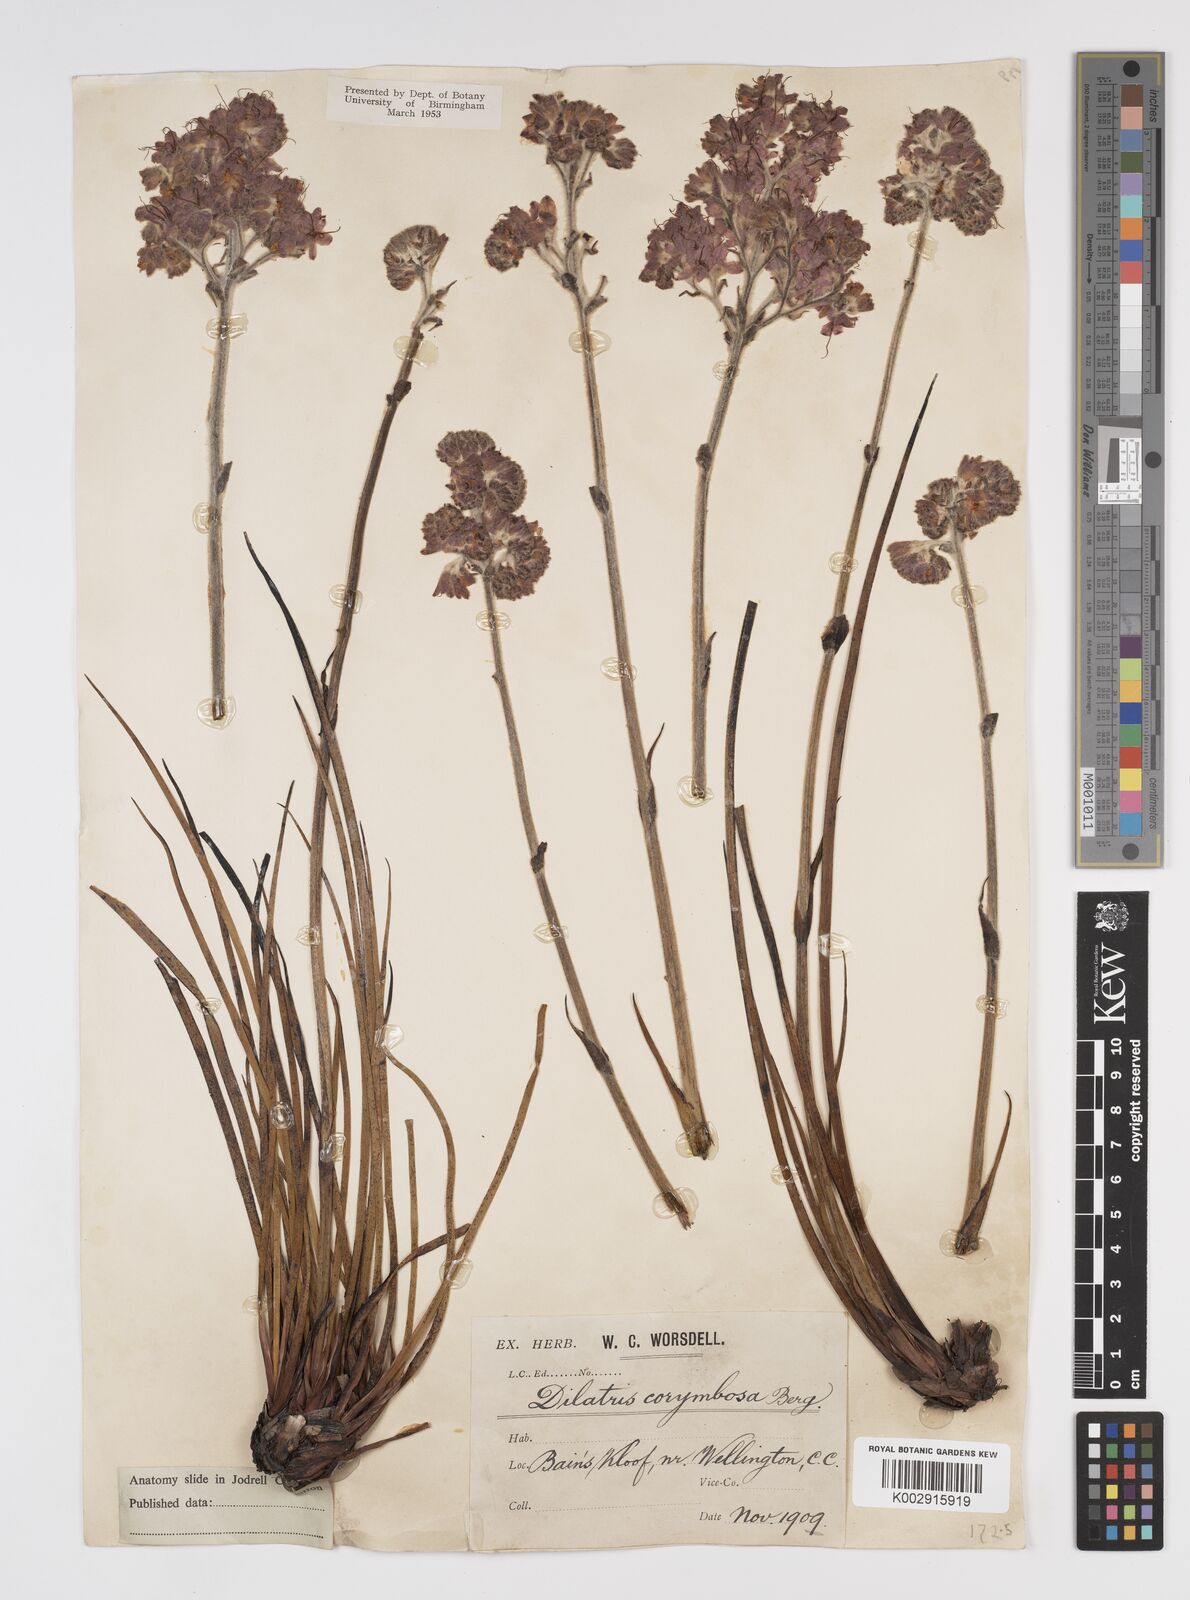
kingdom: Plantae
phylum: Tracheophyta
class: Liliopsida
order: Commelinales
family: Haemodoraceae
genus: Dilatris
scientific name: Dilatris corymbosa
